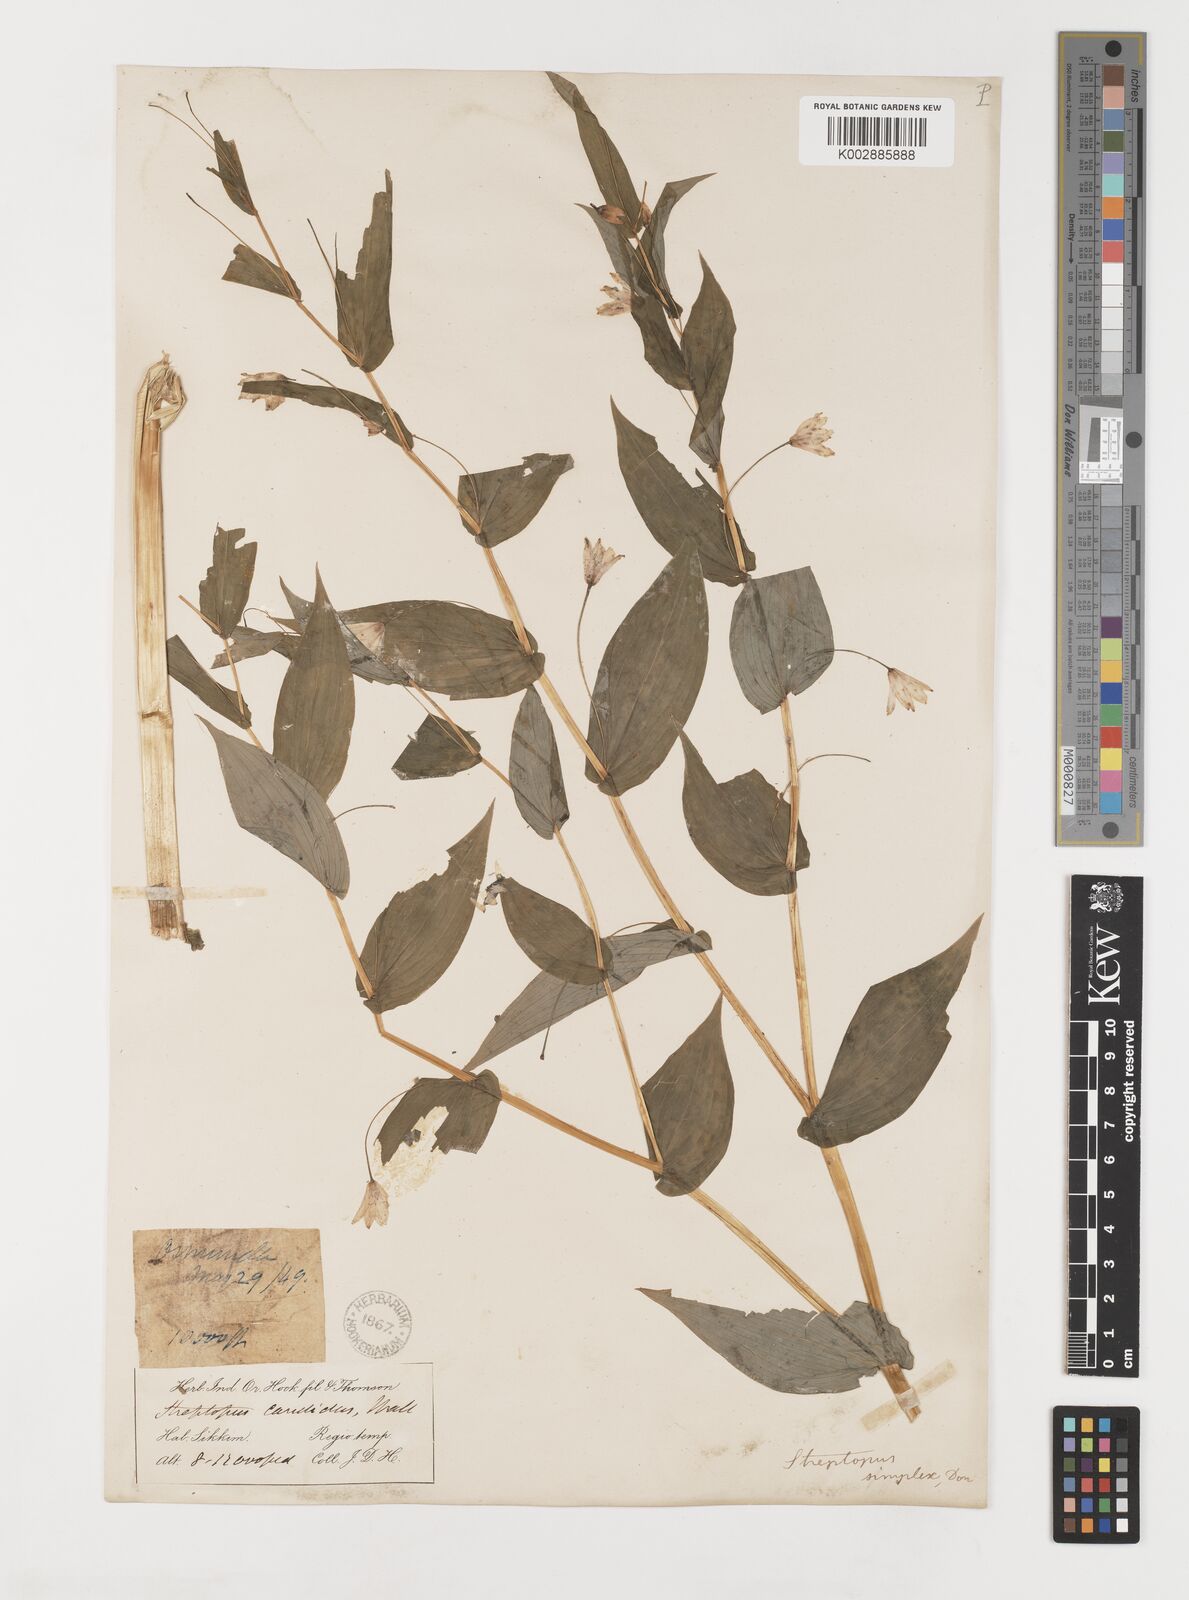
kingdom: Plantae
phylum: Tracheophyta
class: Liliopsida
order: Liliales
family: Liliaceae
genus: Streptopus
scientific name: Streptopus simplex
